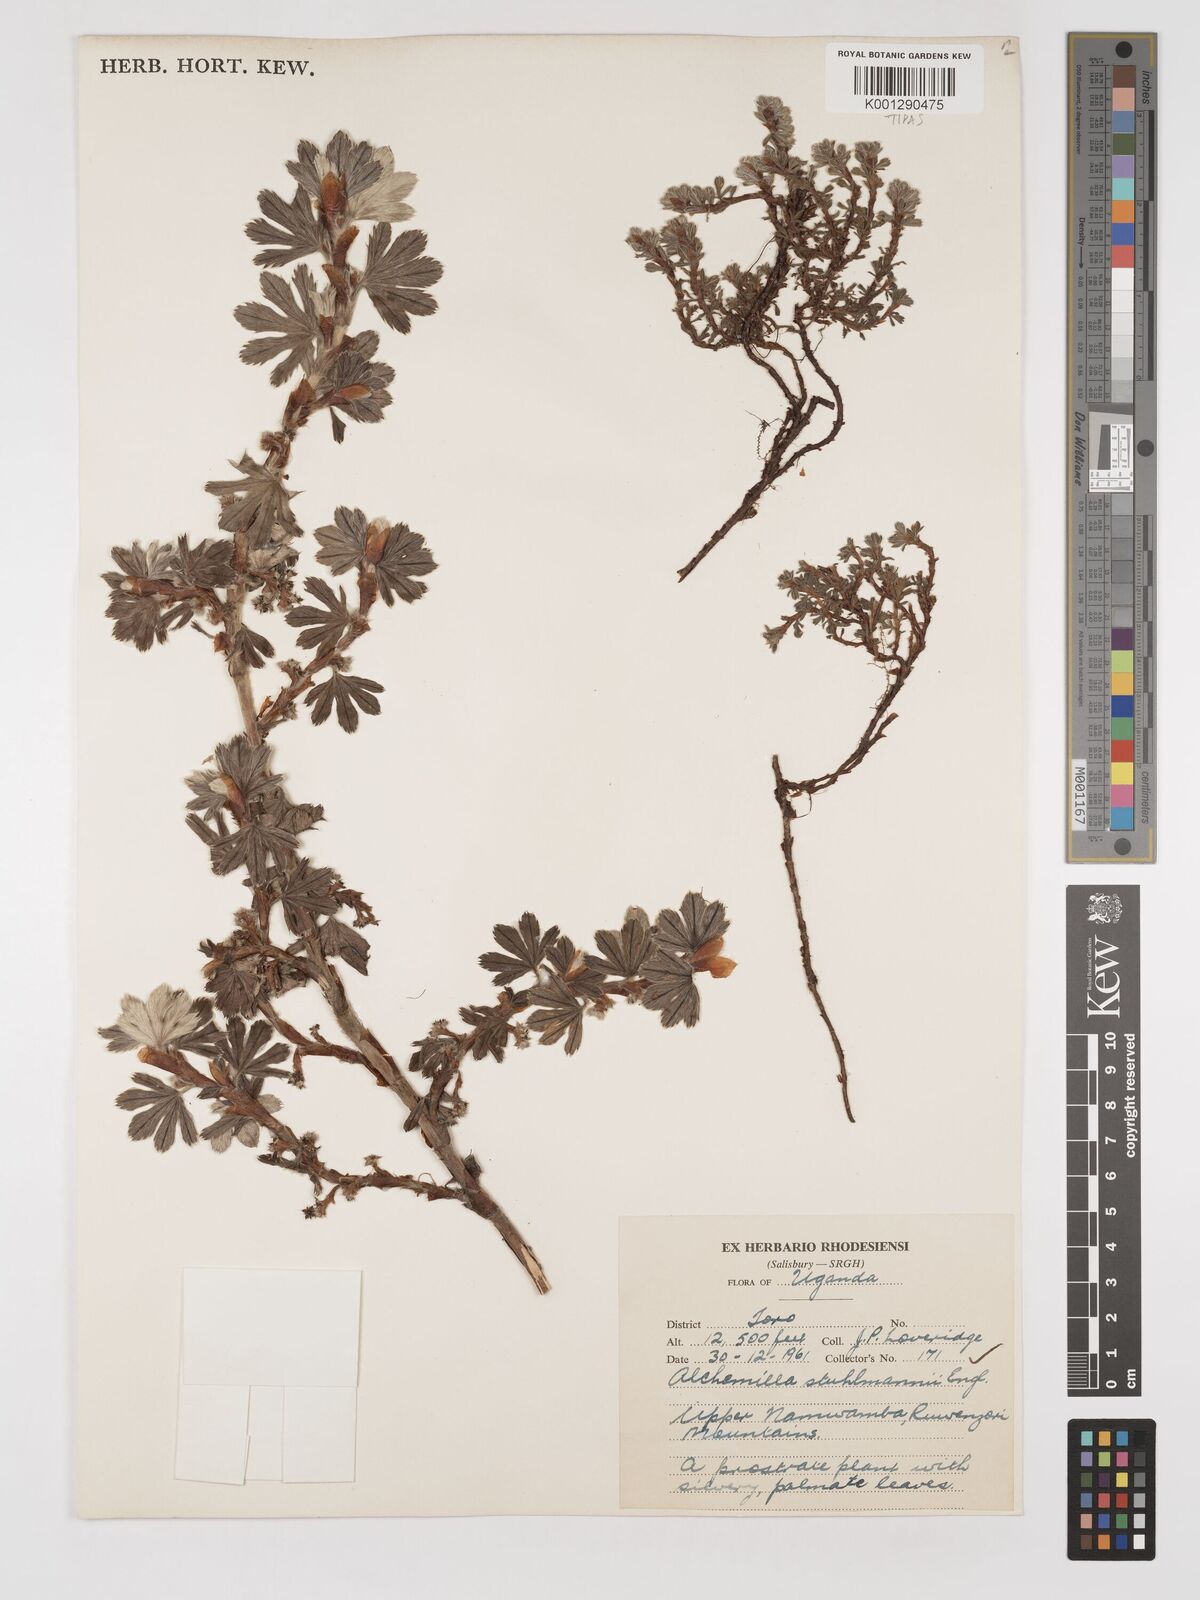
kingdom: Plantae
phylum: Tracheophyta
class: Magnoliopsida
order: Rosales
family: Rosaceae
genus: Alchemilla
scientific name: Alchemilla stuhlmannii
